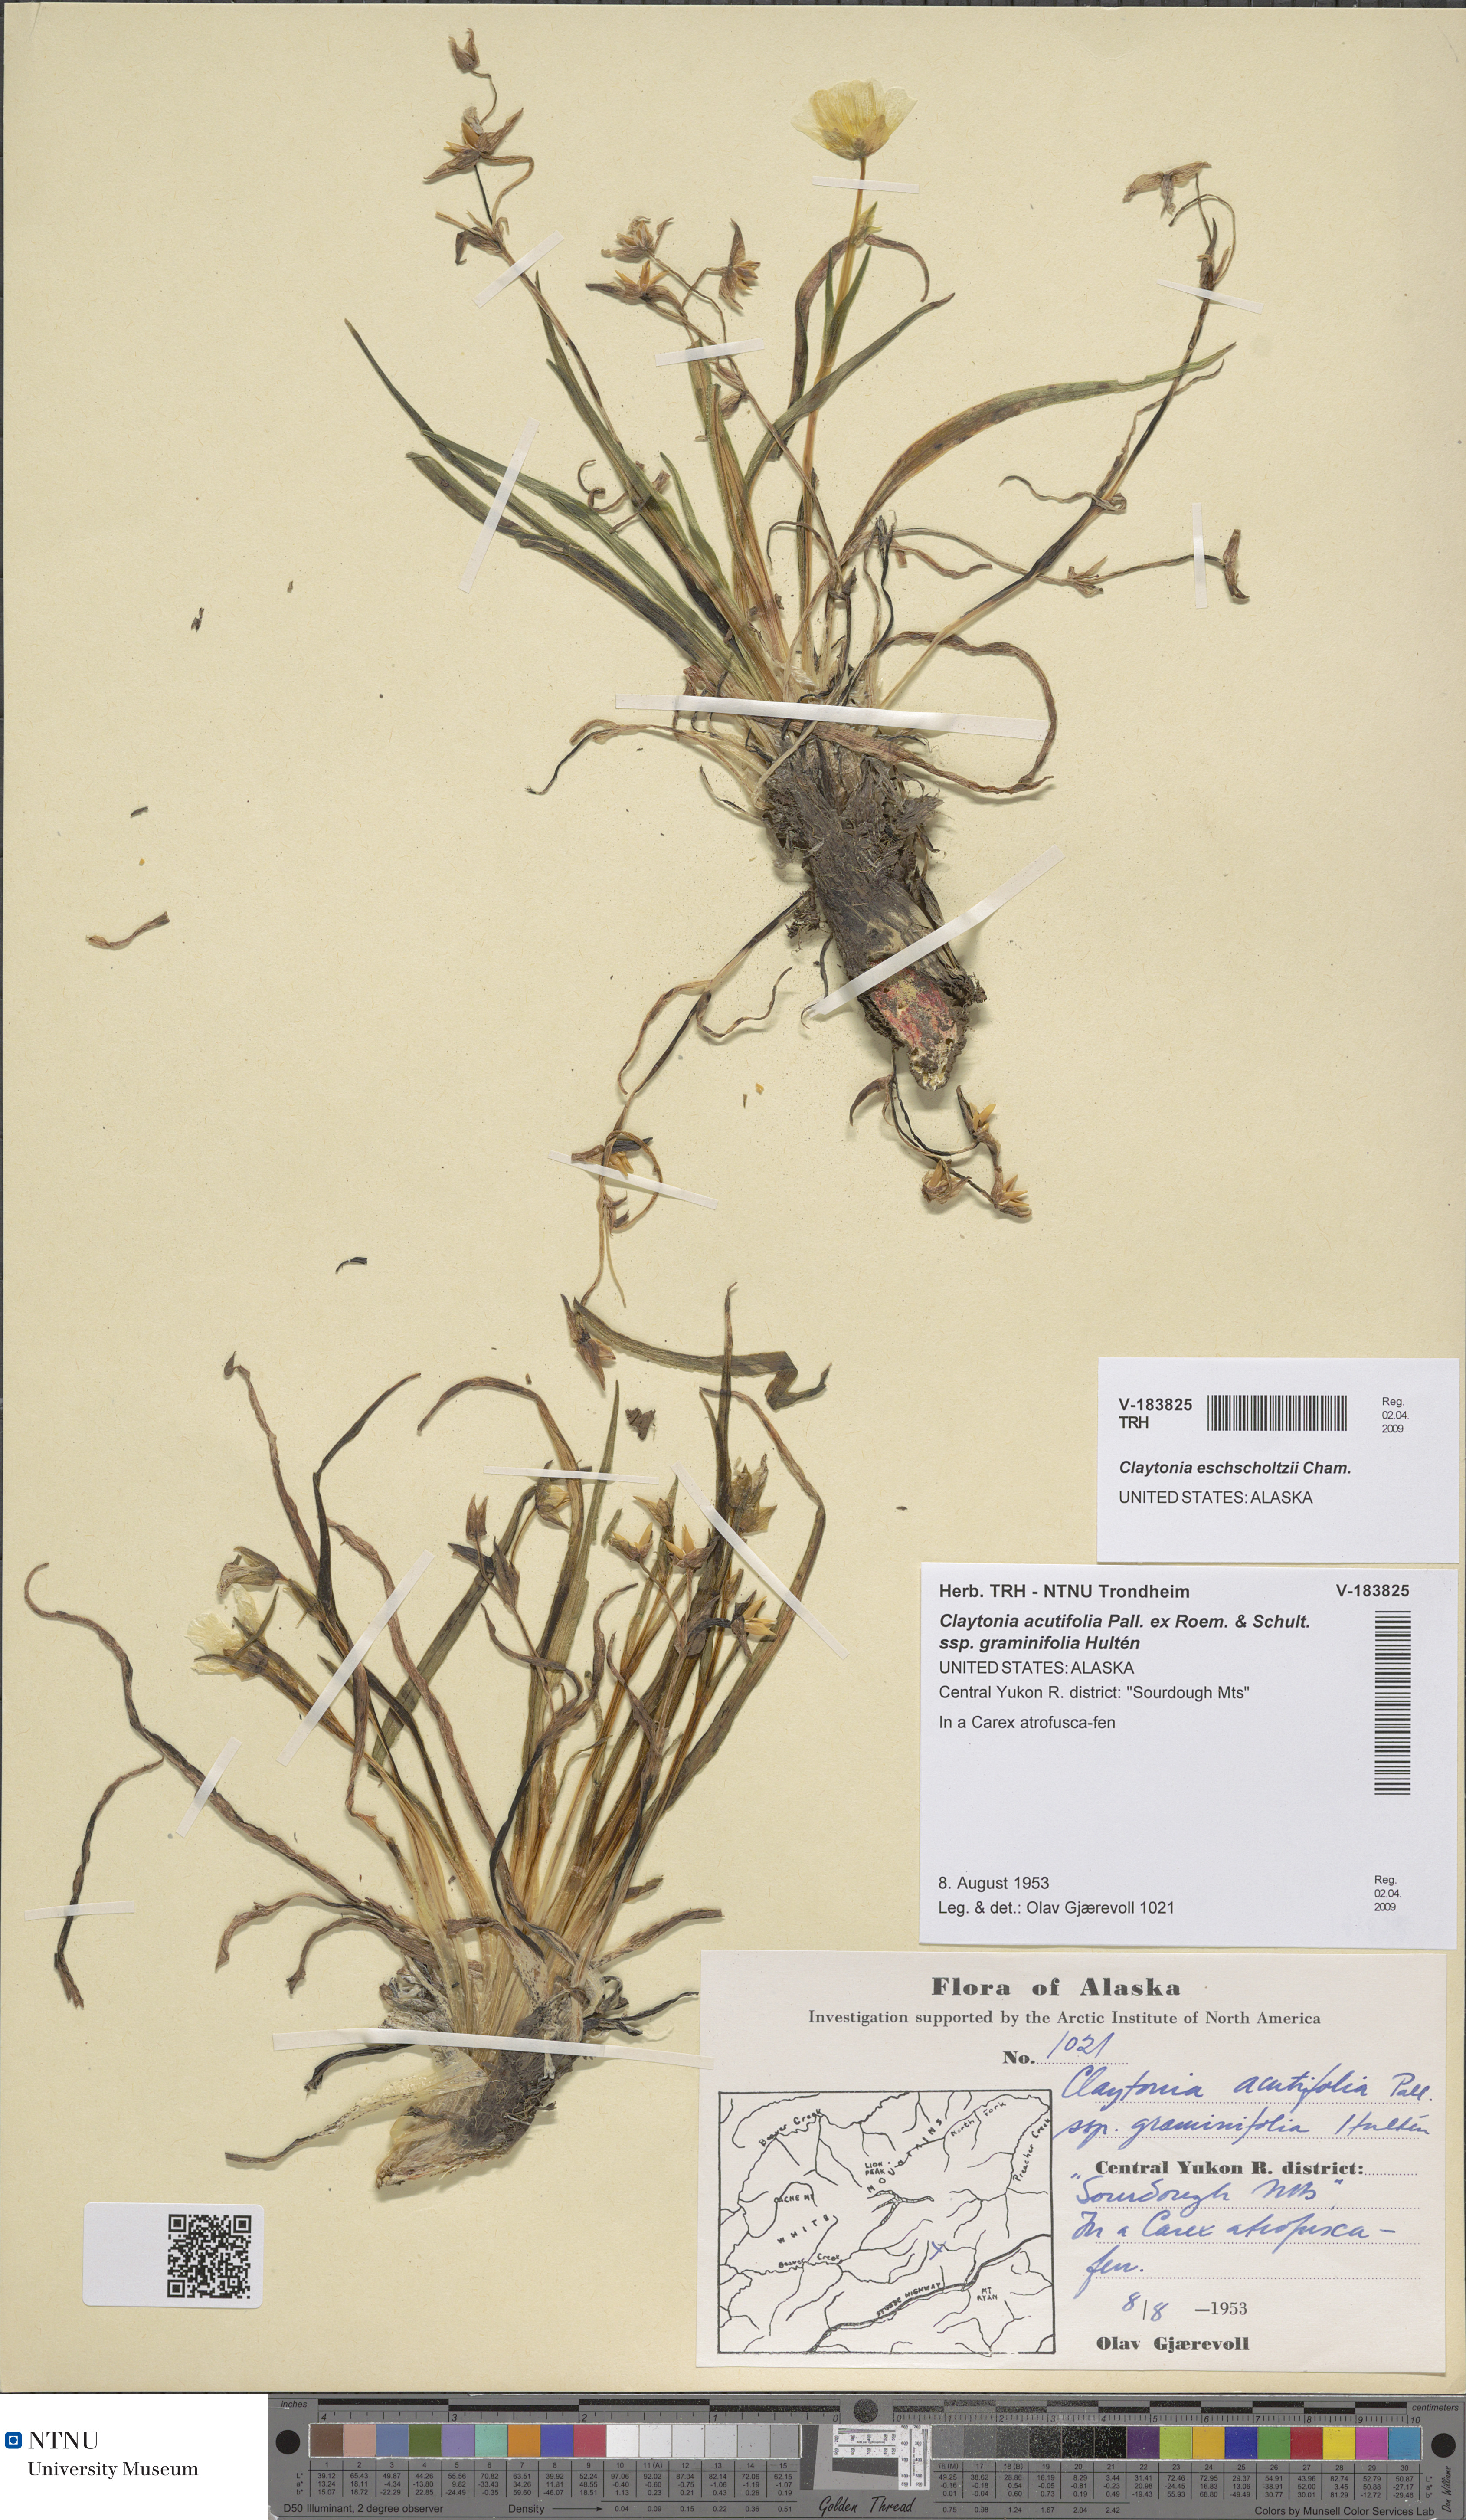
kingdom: Plantae
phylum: Tracheophyta
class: Magnoliopsida
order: Caryophyllales
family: Montiaceae
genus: Claytonia
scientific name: Claytonia acutifolia
